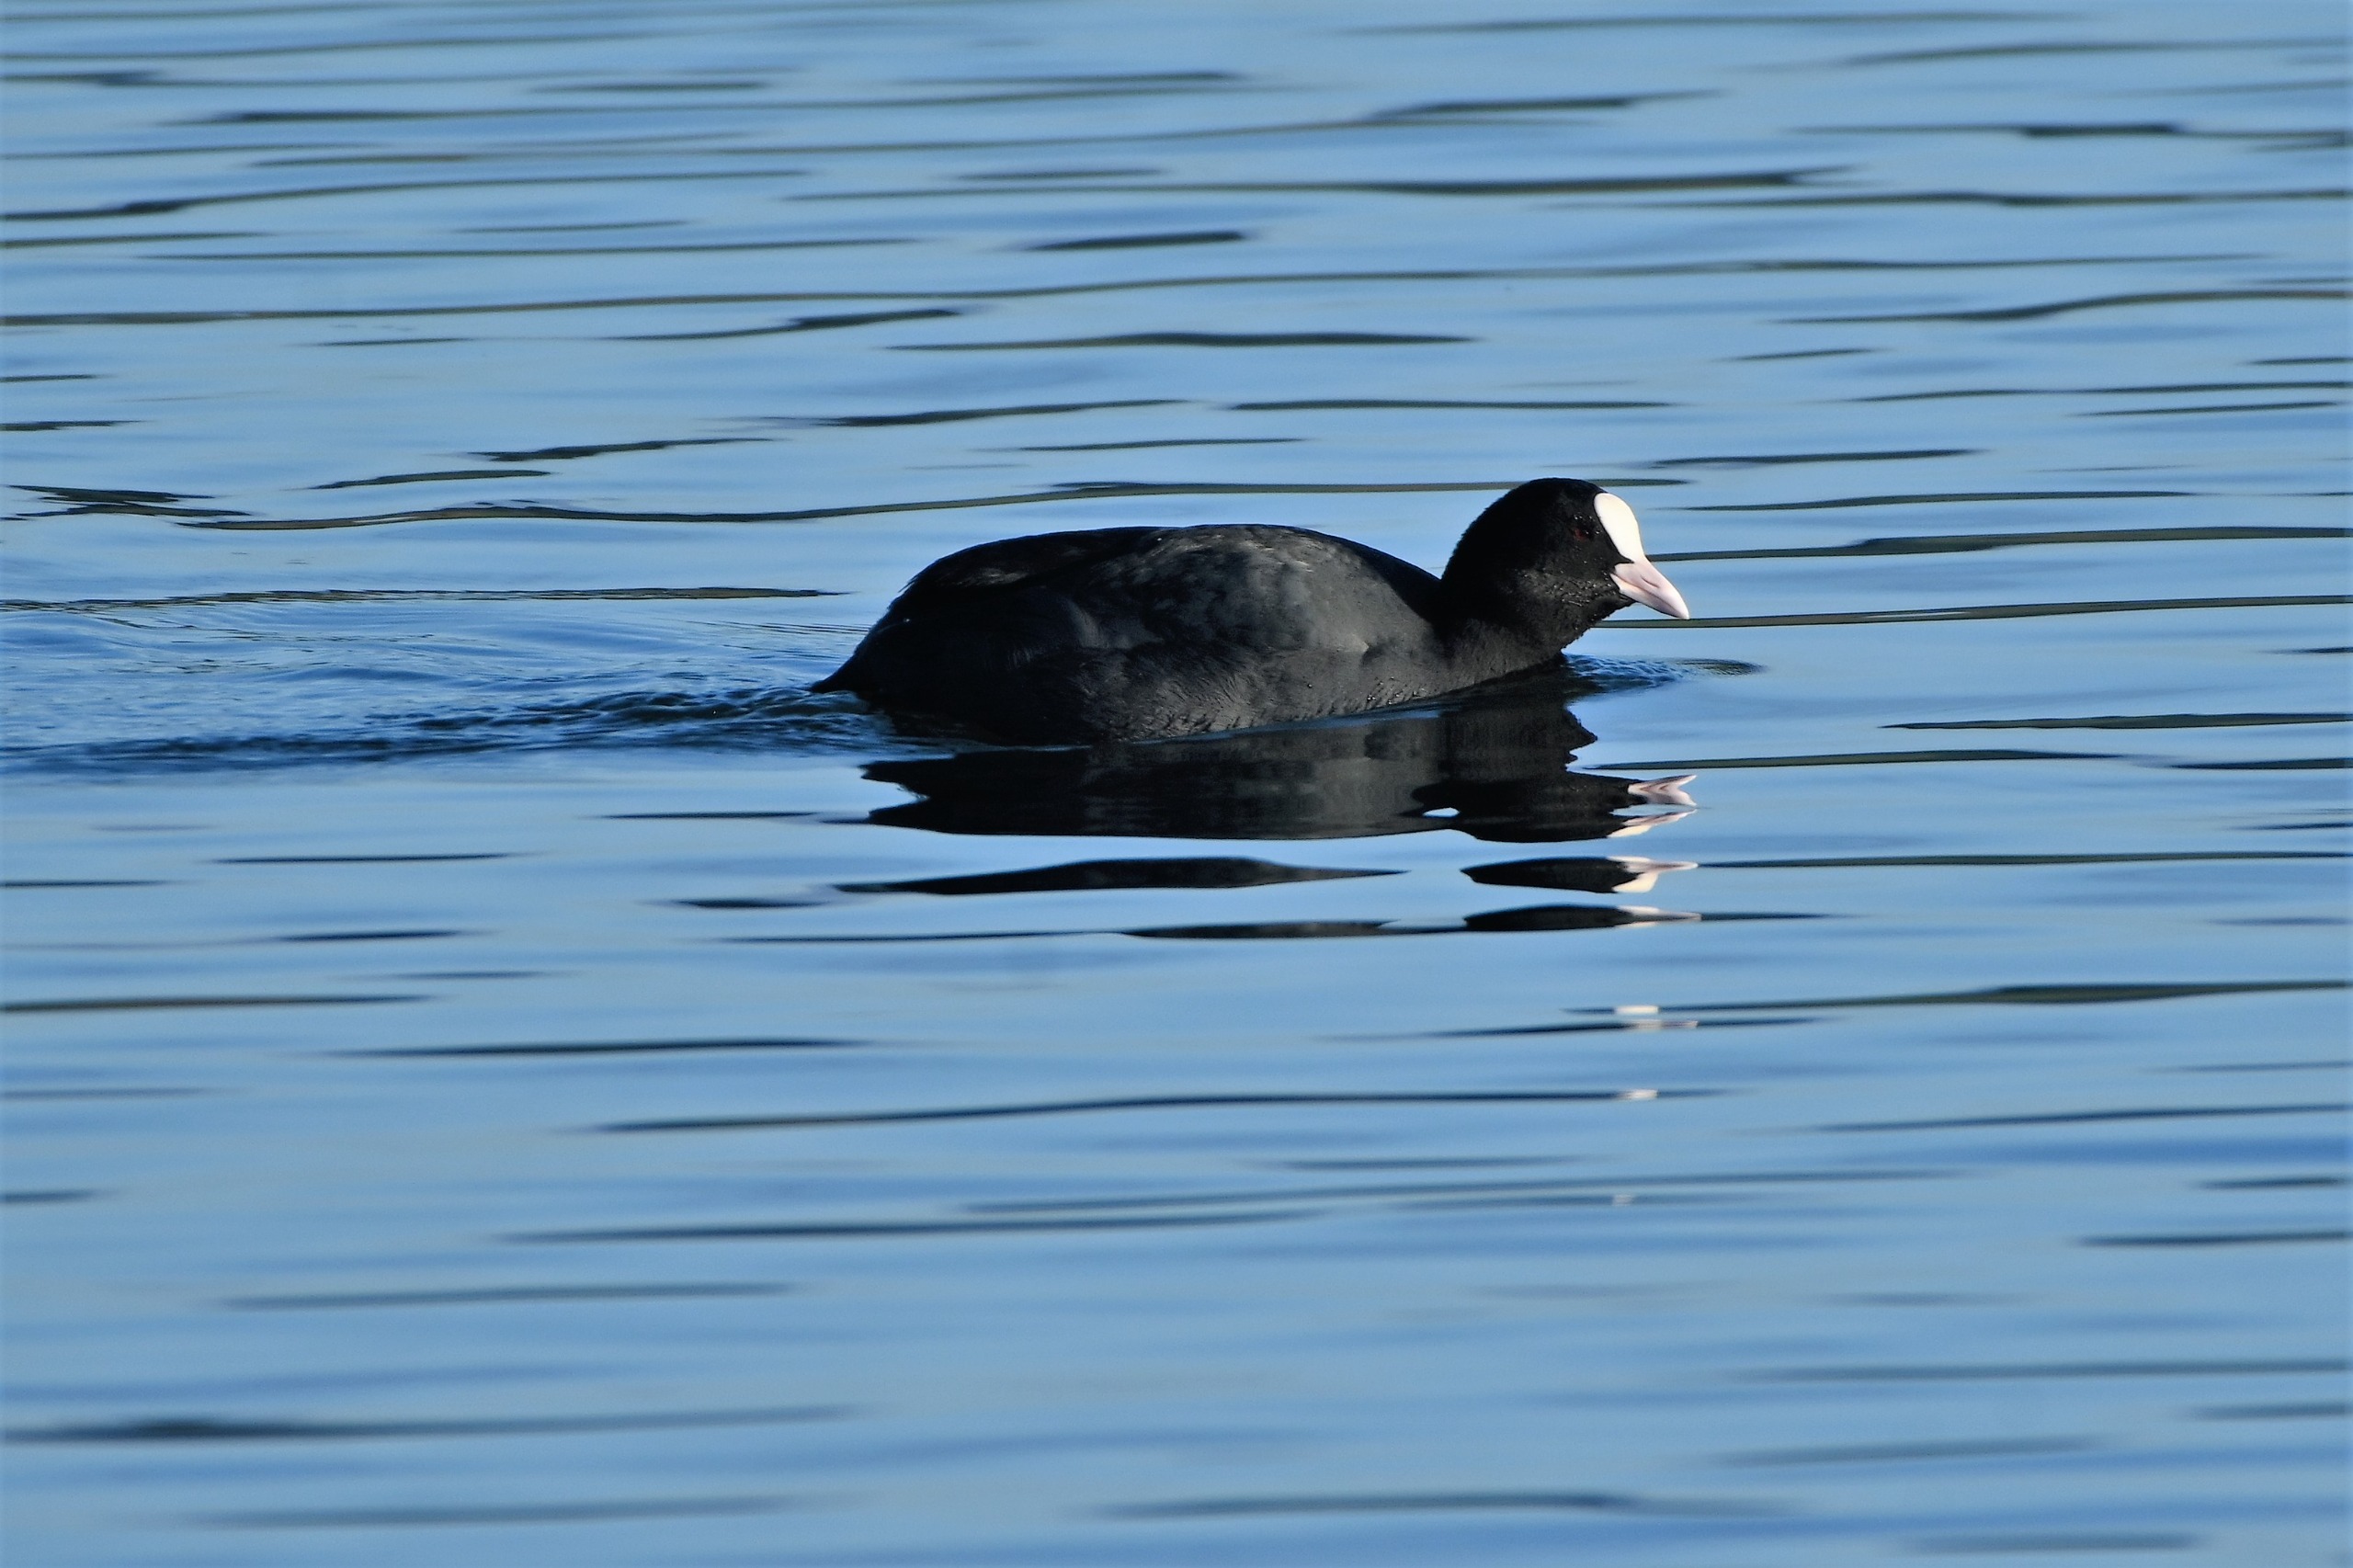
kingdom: Animalia
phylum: Chordata
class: Aves
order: Gruiformes
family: Rallidae
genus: Fulica
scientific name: Fulica atra
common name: Blishøne
